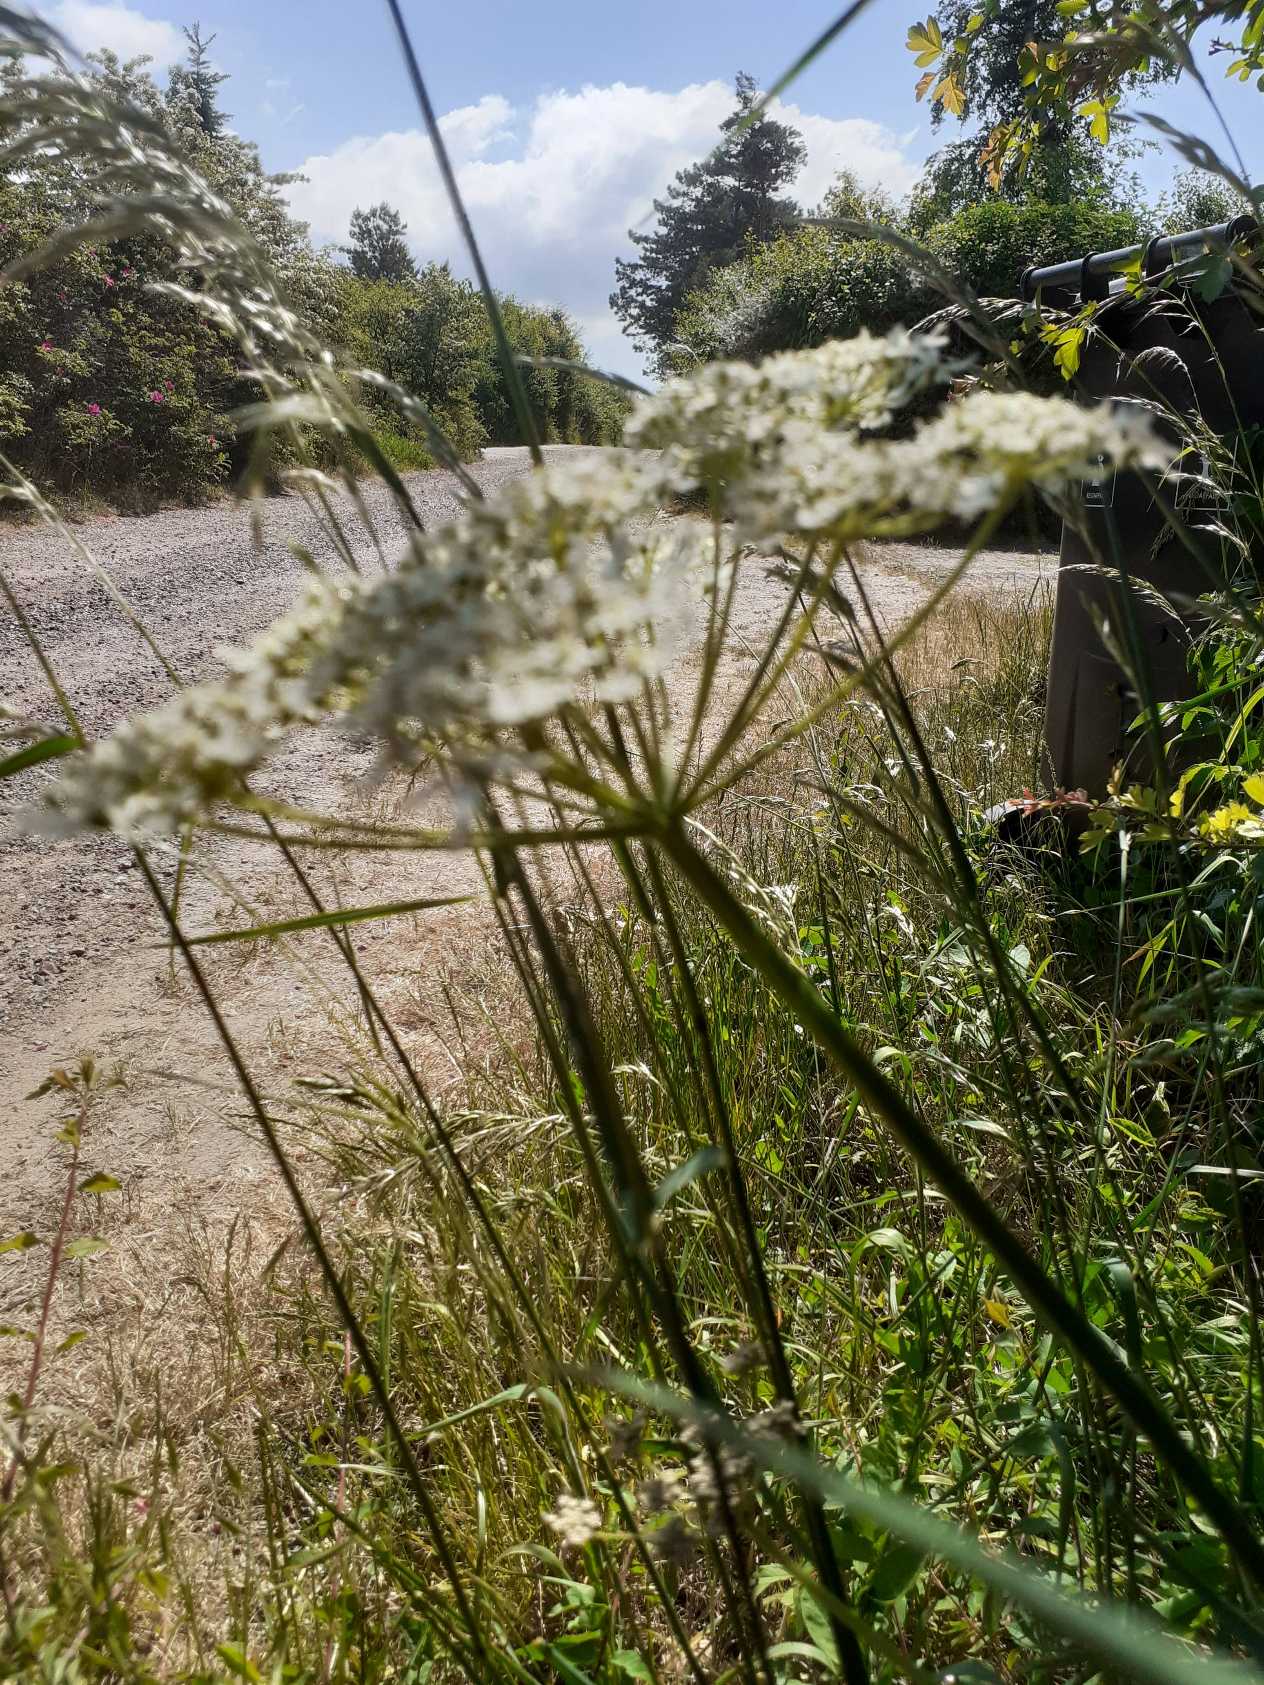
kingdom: Plantae
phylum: Tracheophyta
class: Magnoliopsida
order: Apiales
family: Apiaceae
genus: Heracleum
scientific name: Heracleum sphondylium
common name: Almindelig bjørneklo
